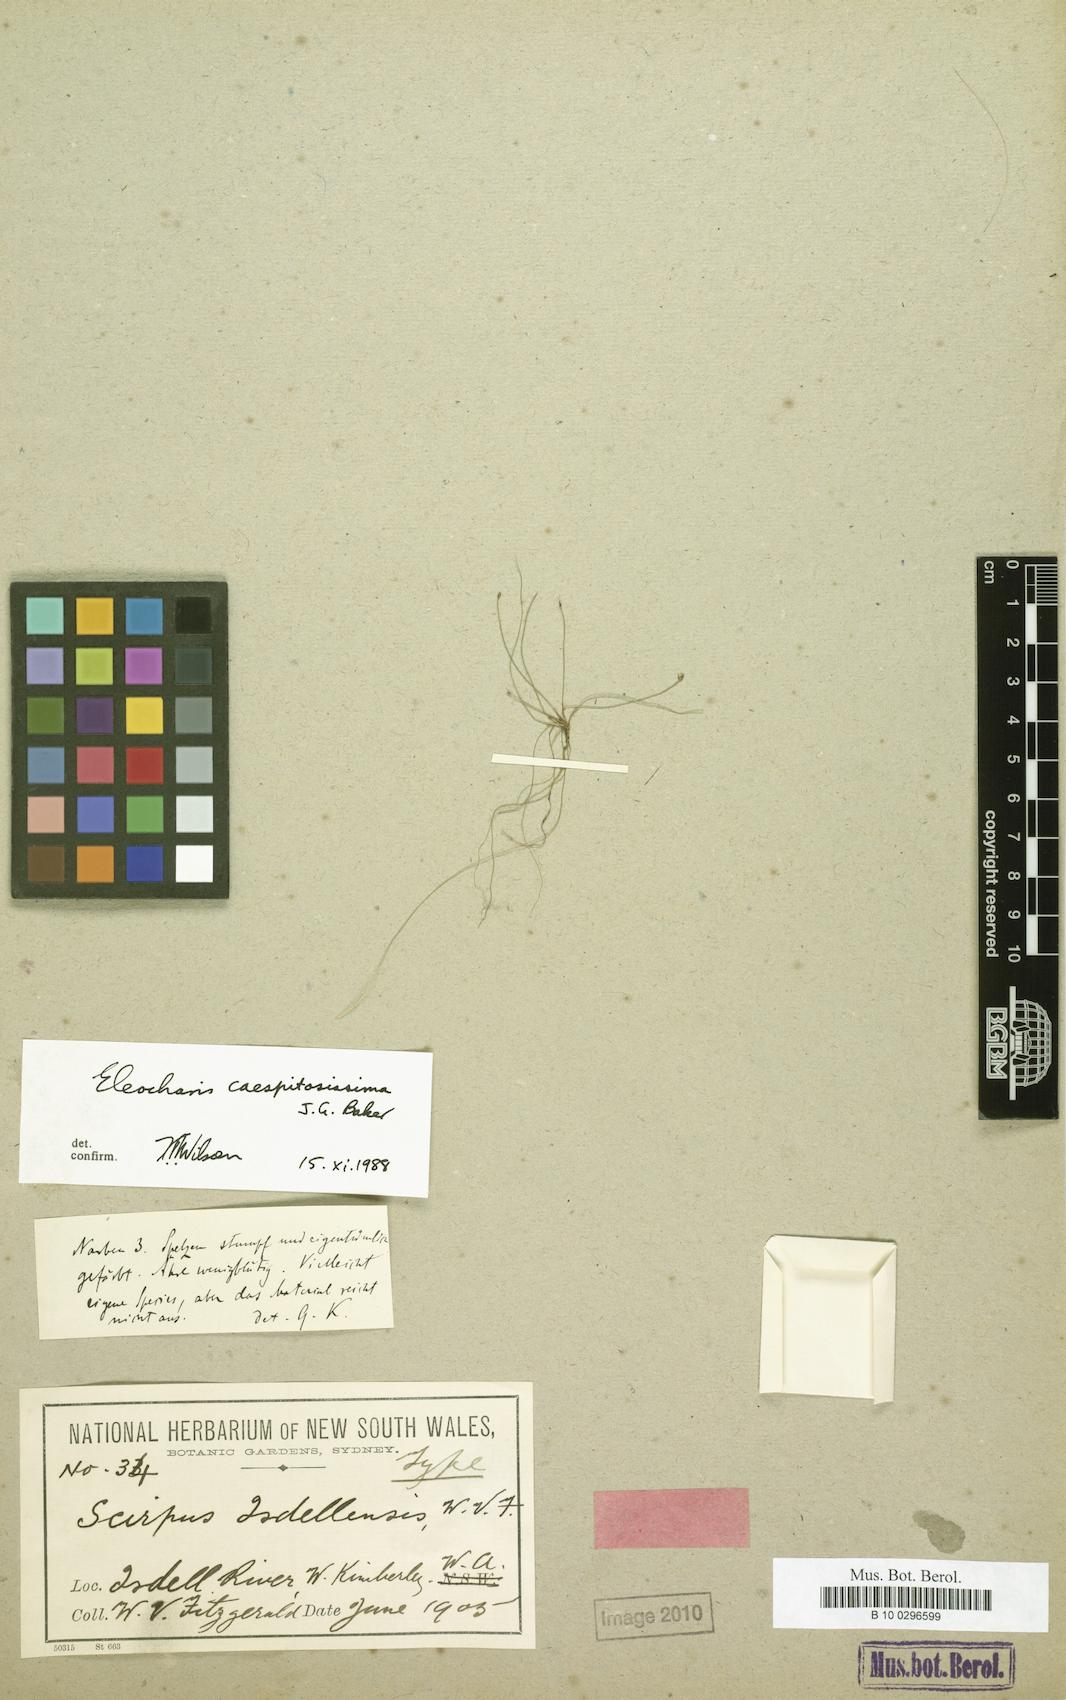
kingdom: Plantae
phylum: Tracheophyta
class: Liliopsida
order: Poales
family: Cyperaceae
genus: Eleocharis
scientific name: Eleocharis caespitosissima
